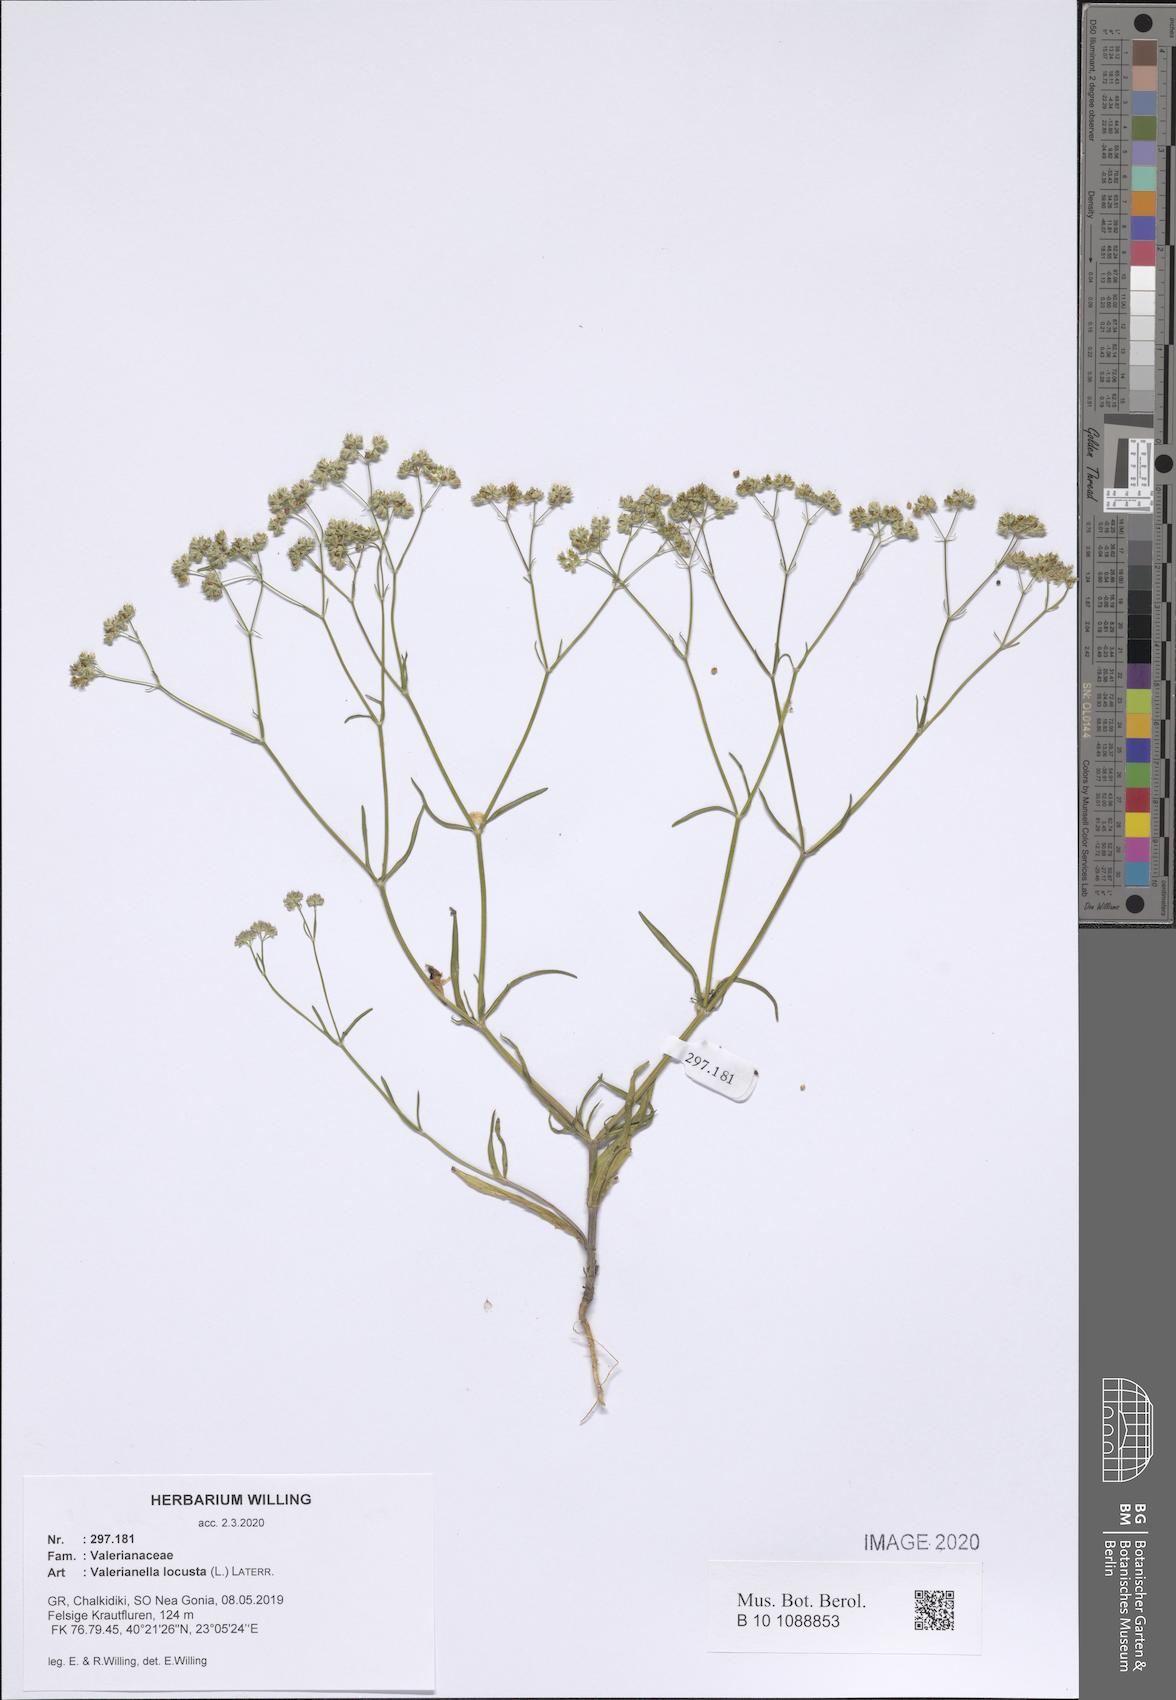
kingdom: Plantae
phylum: Tracheophyta
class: Magnoliopsida
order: Dipsacales
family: Caprifoliaceae
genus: Valerianella
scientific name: Valerianella locusta
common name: Common cornsalad
